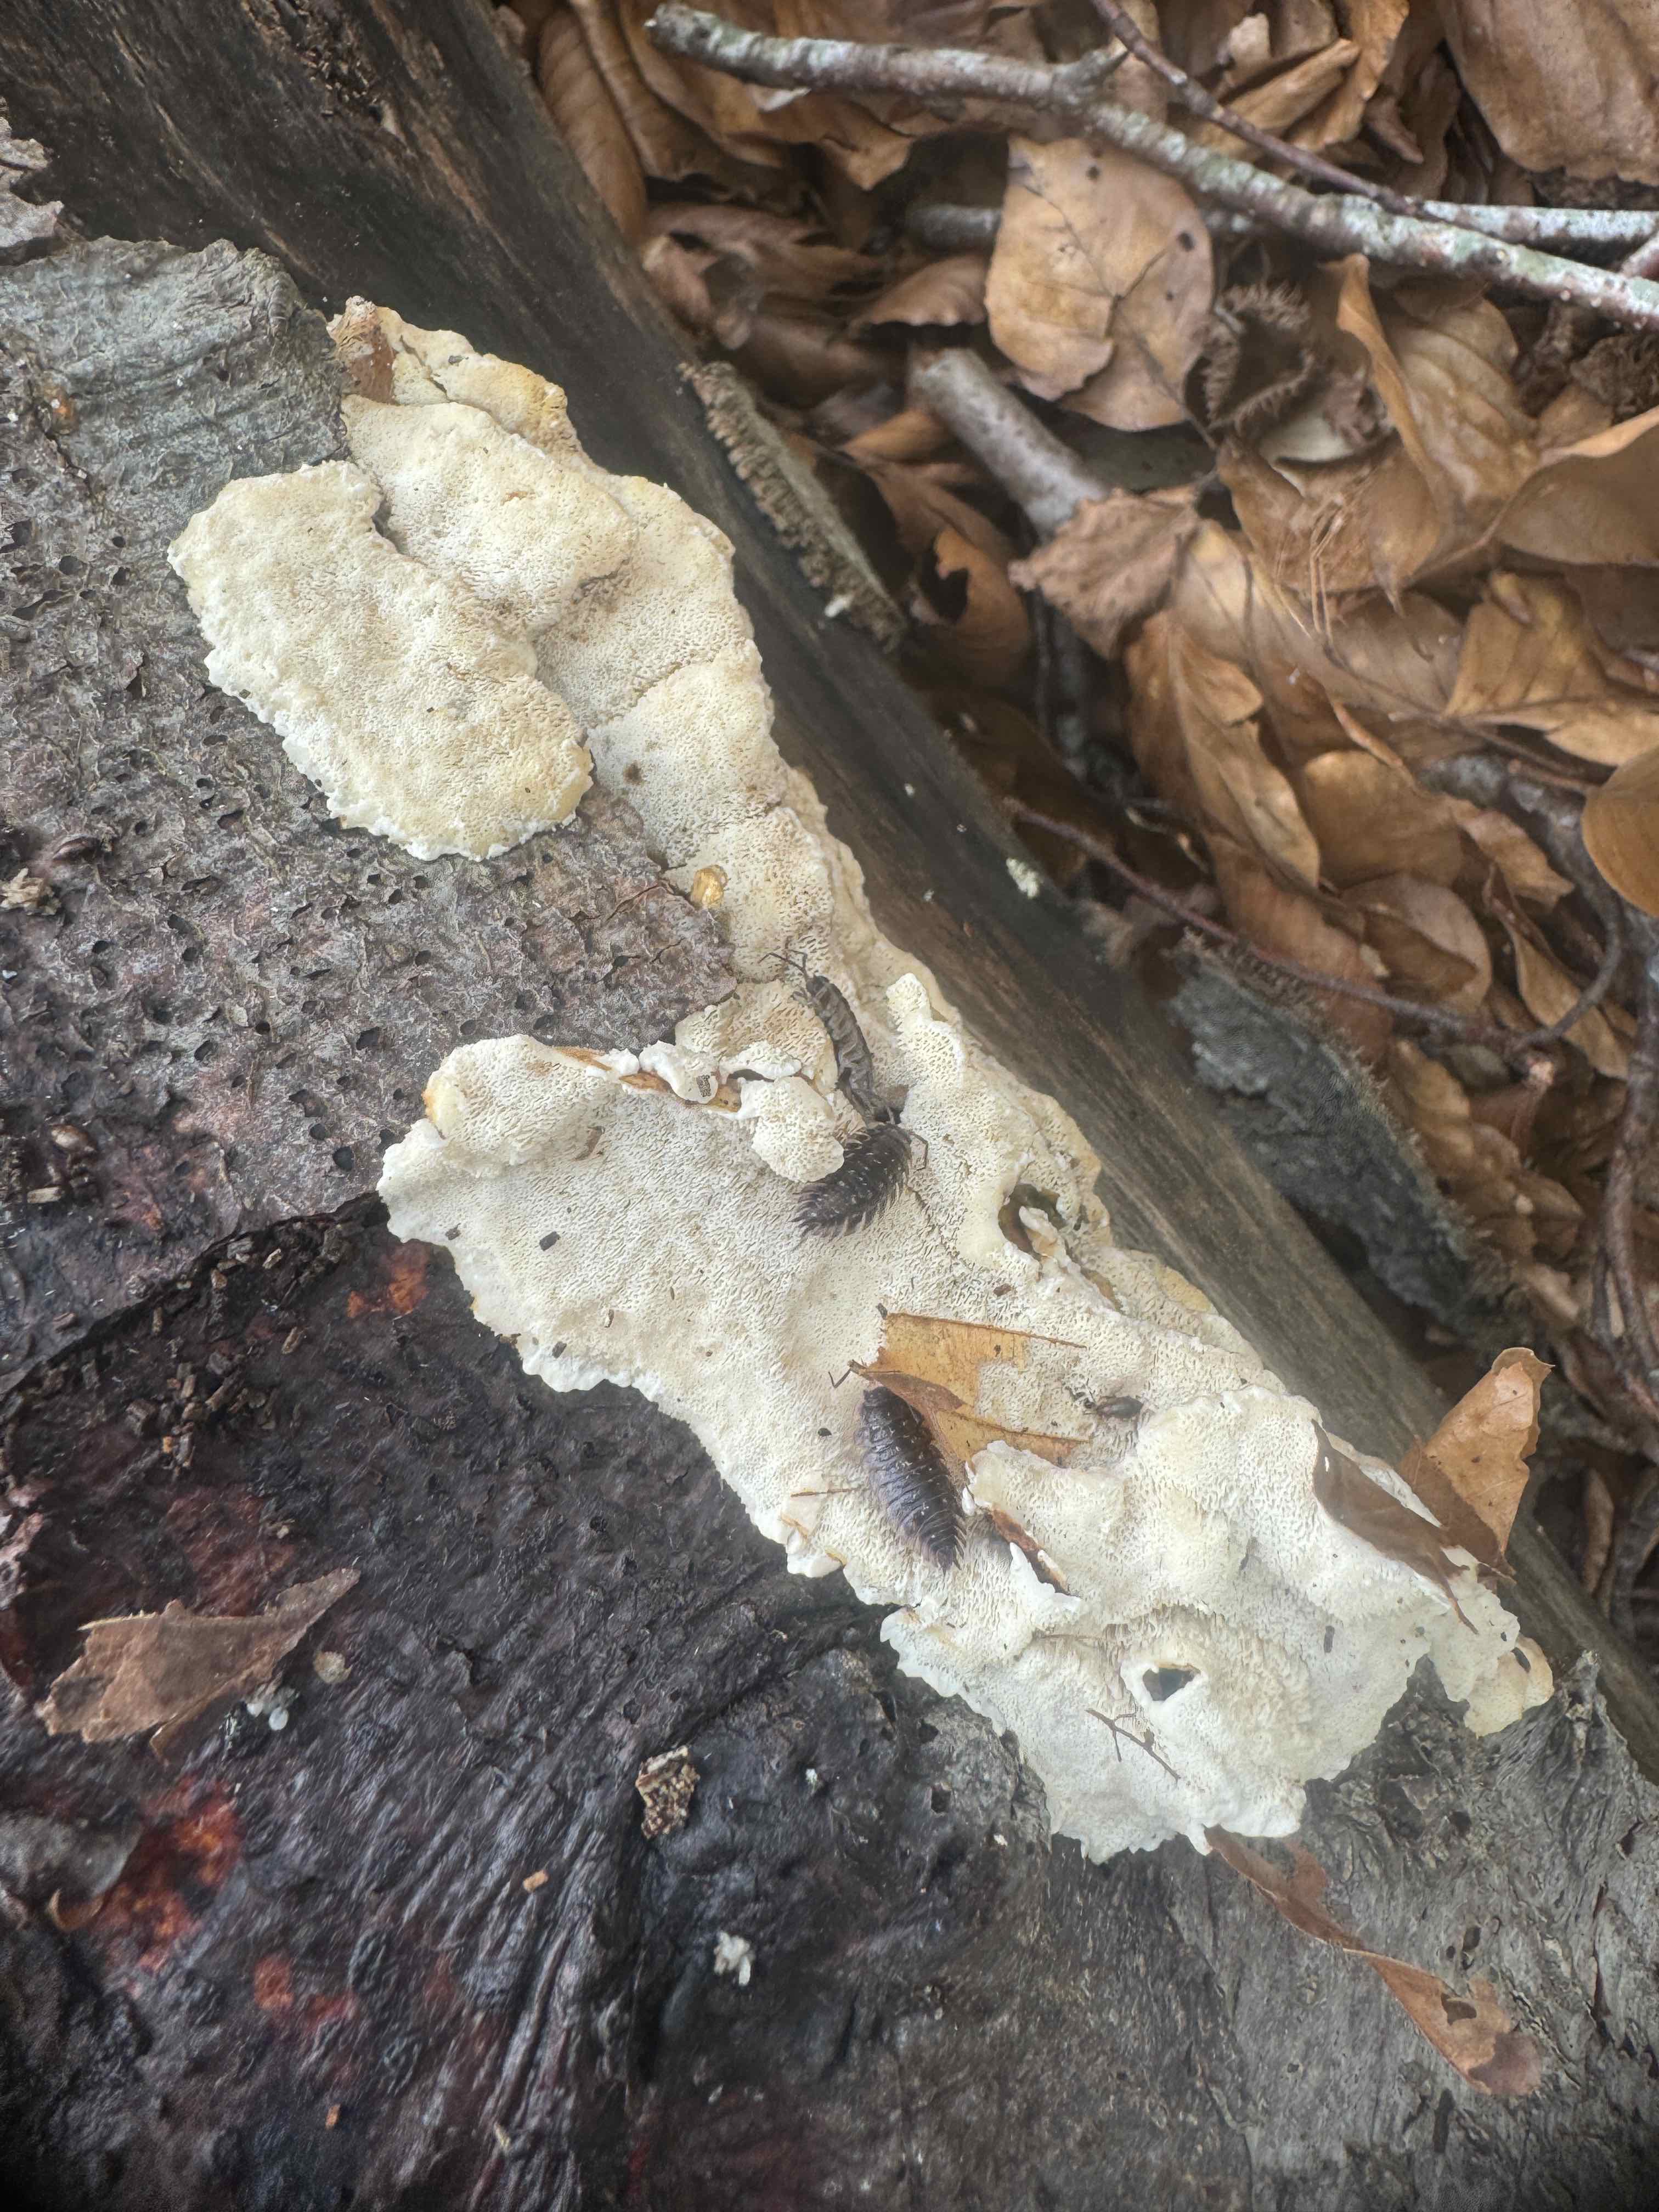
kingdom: Fungi
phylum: Basidiomycota
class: Agaricomycetes
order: Hymenochaetales
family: Schizoporaceae
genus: Xylodon
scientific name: Xylodon subtropicus
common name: labyrint-tandsvamp
